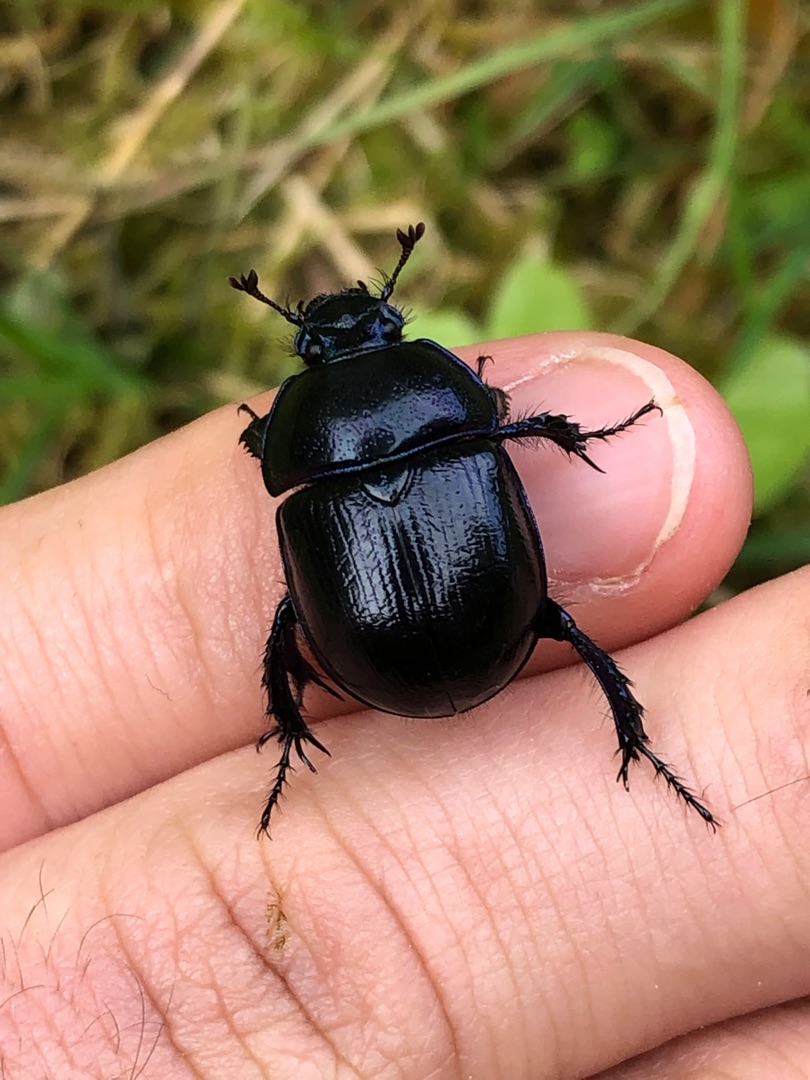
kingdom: Animalia
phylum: Arthropoda
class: Insecta
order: Coleoptera
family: Geotrupidae
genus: Anoplotrupes
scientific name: Anoplotrupes stercorosus
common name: Skovskarnbasse
